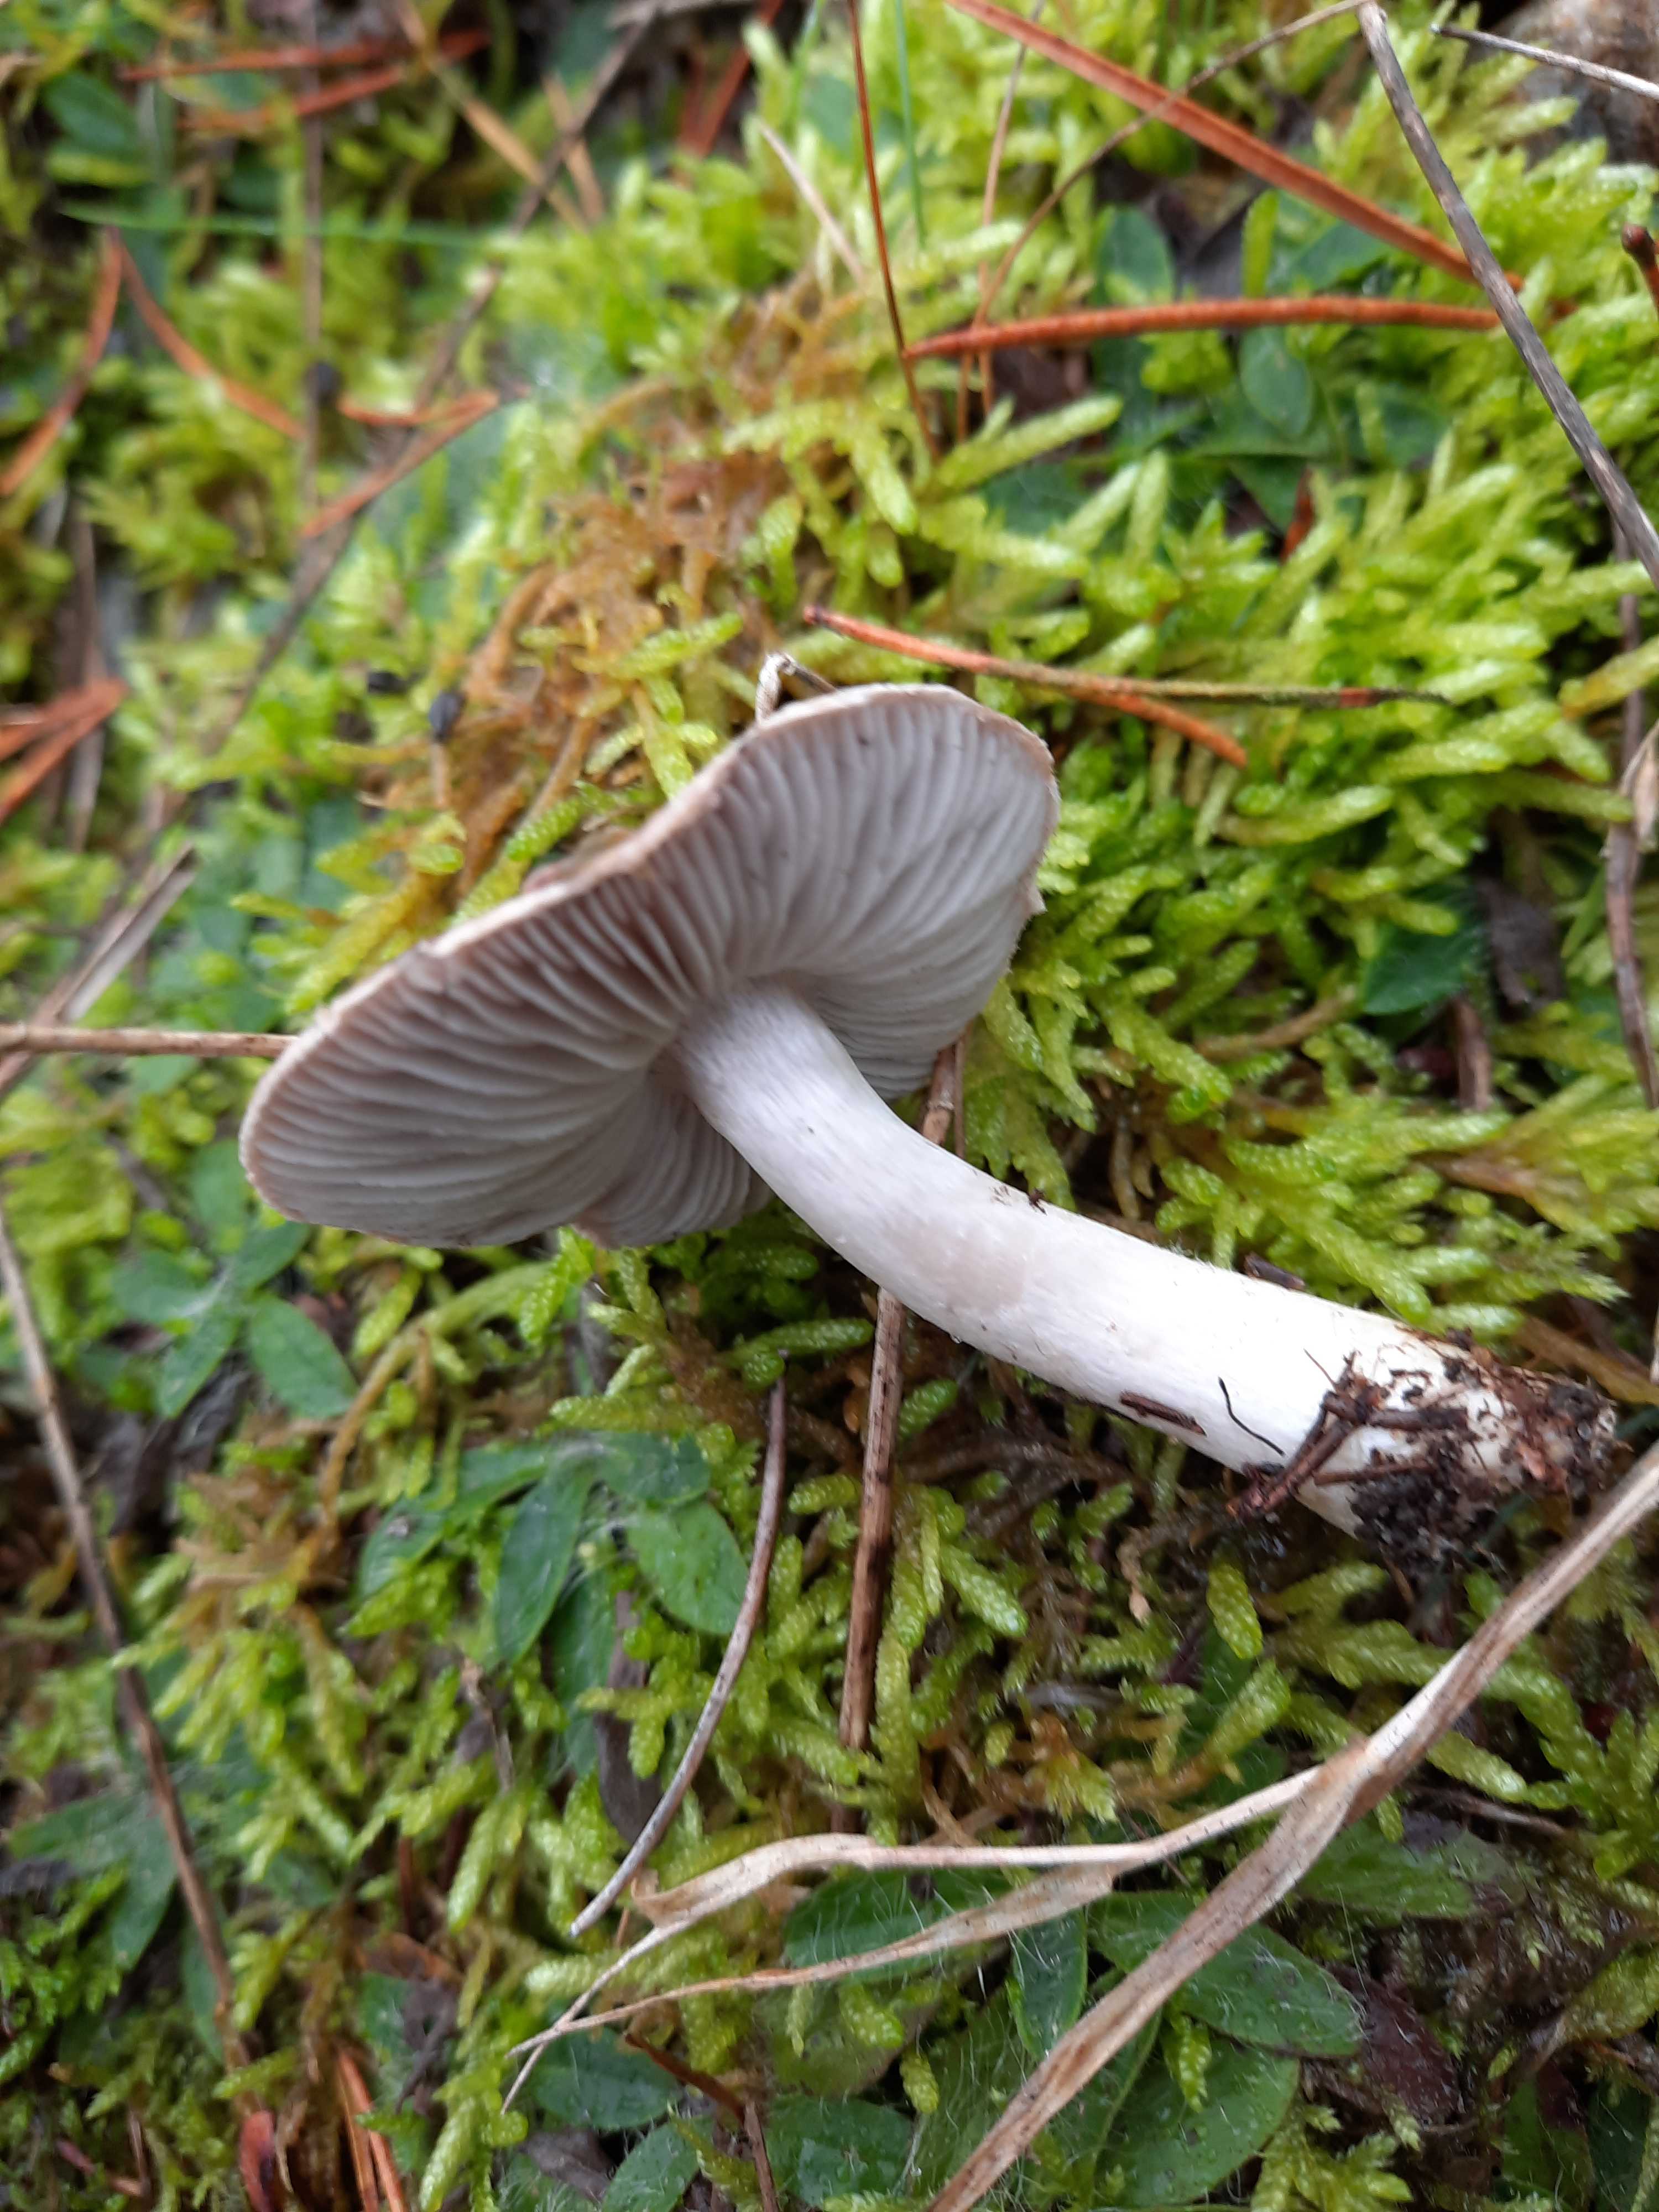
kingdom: Fungi
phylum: Basidiomycota
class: Agaricomycetes
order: Agaricales
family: Tricholomataceae
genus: Tricholoma
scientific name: Tricholoma terreum
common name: jordfarvet ridderhat
